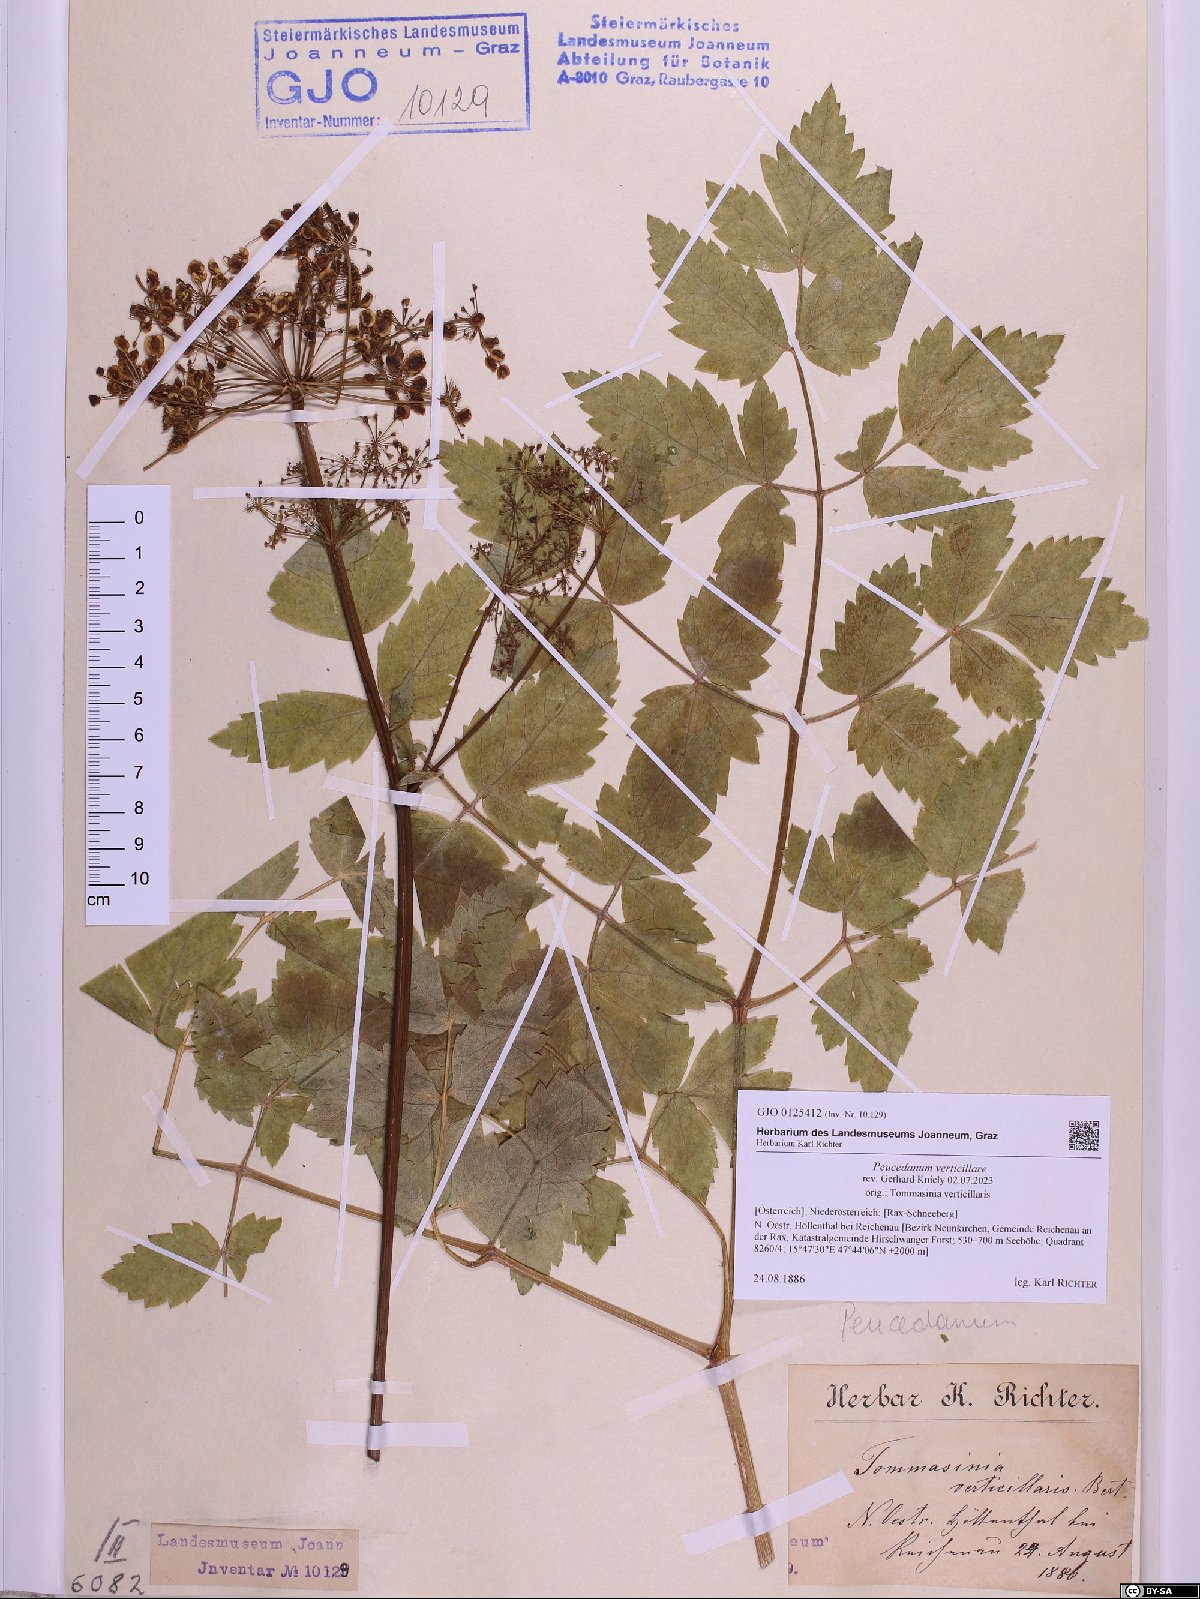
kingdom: Plantae
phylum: Tracheophyta
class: Magnoliopsida
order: Apiales
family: Apiaceae
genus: Tommasinia
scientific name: Tommasinia altissima
